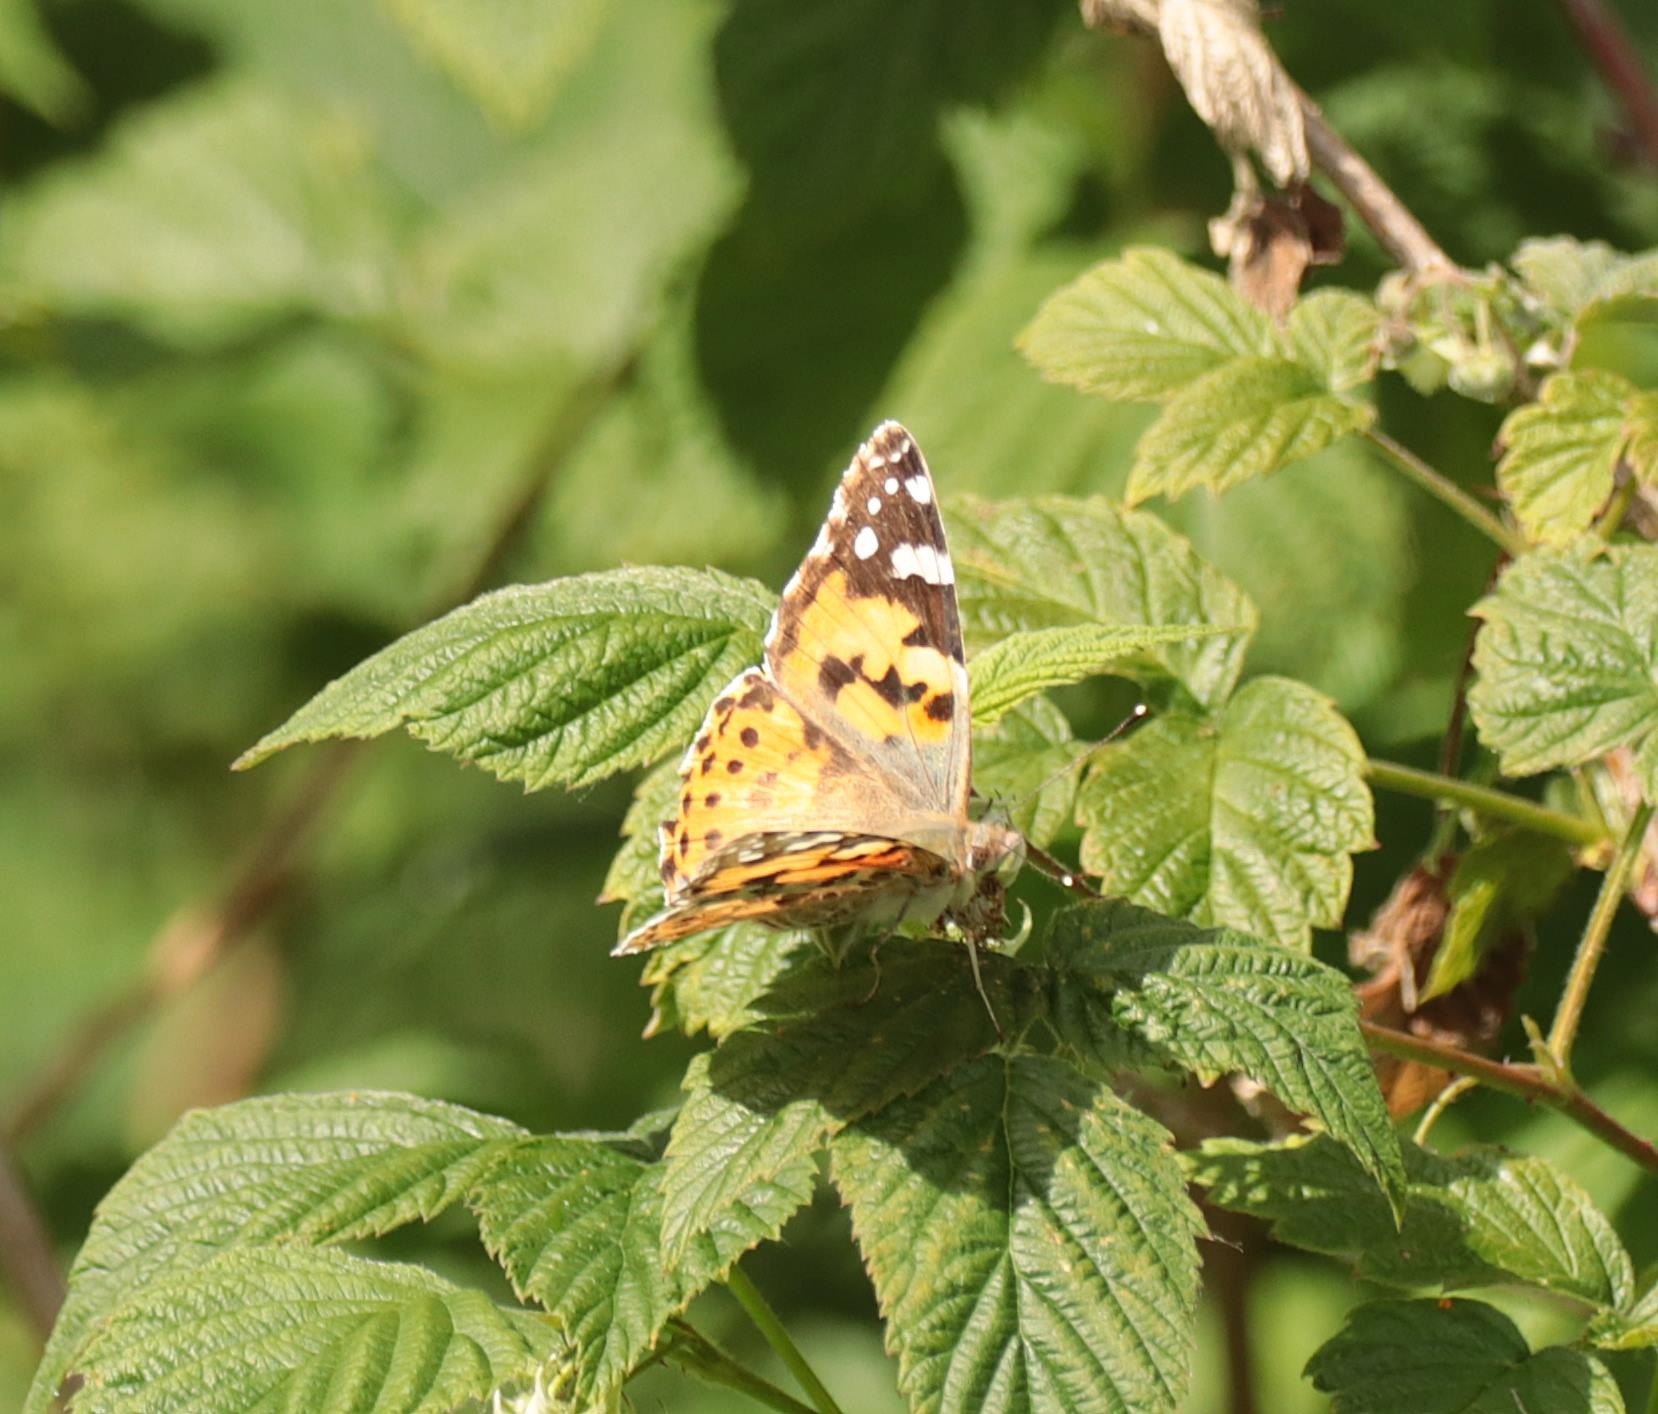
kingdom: Animalia
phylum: Arthropoda
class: Insecta
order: Lepidoptera
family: Nymphalidae
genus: Vanessa
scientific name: Vanessa cardui
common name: Tidselsommerfugl
